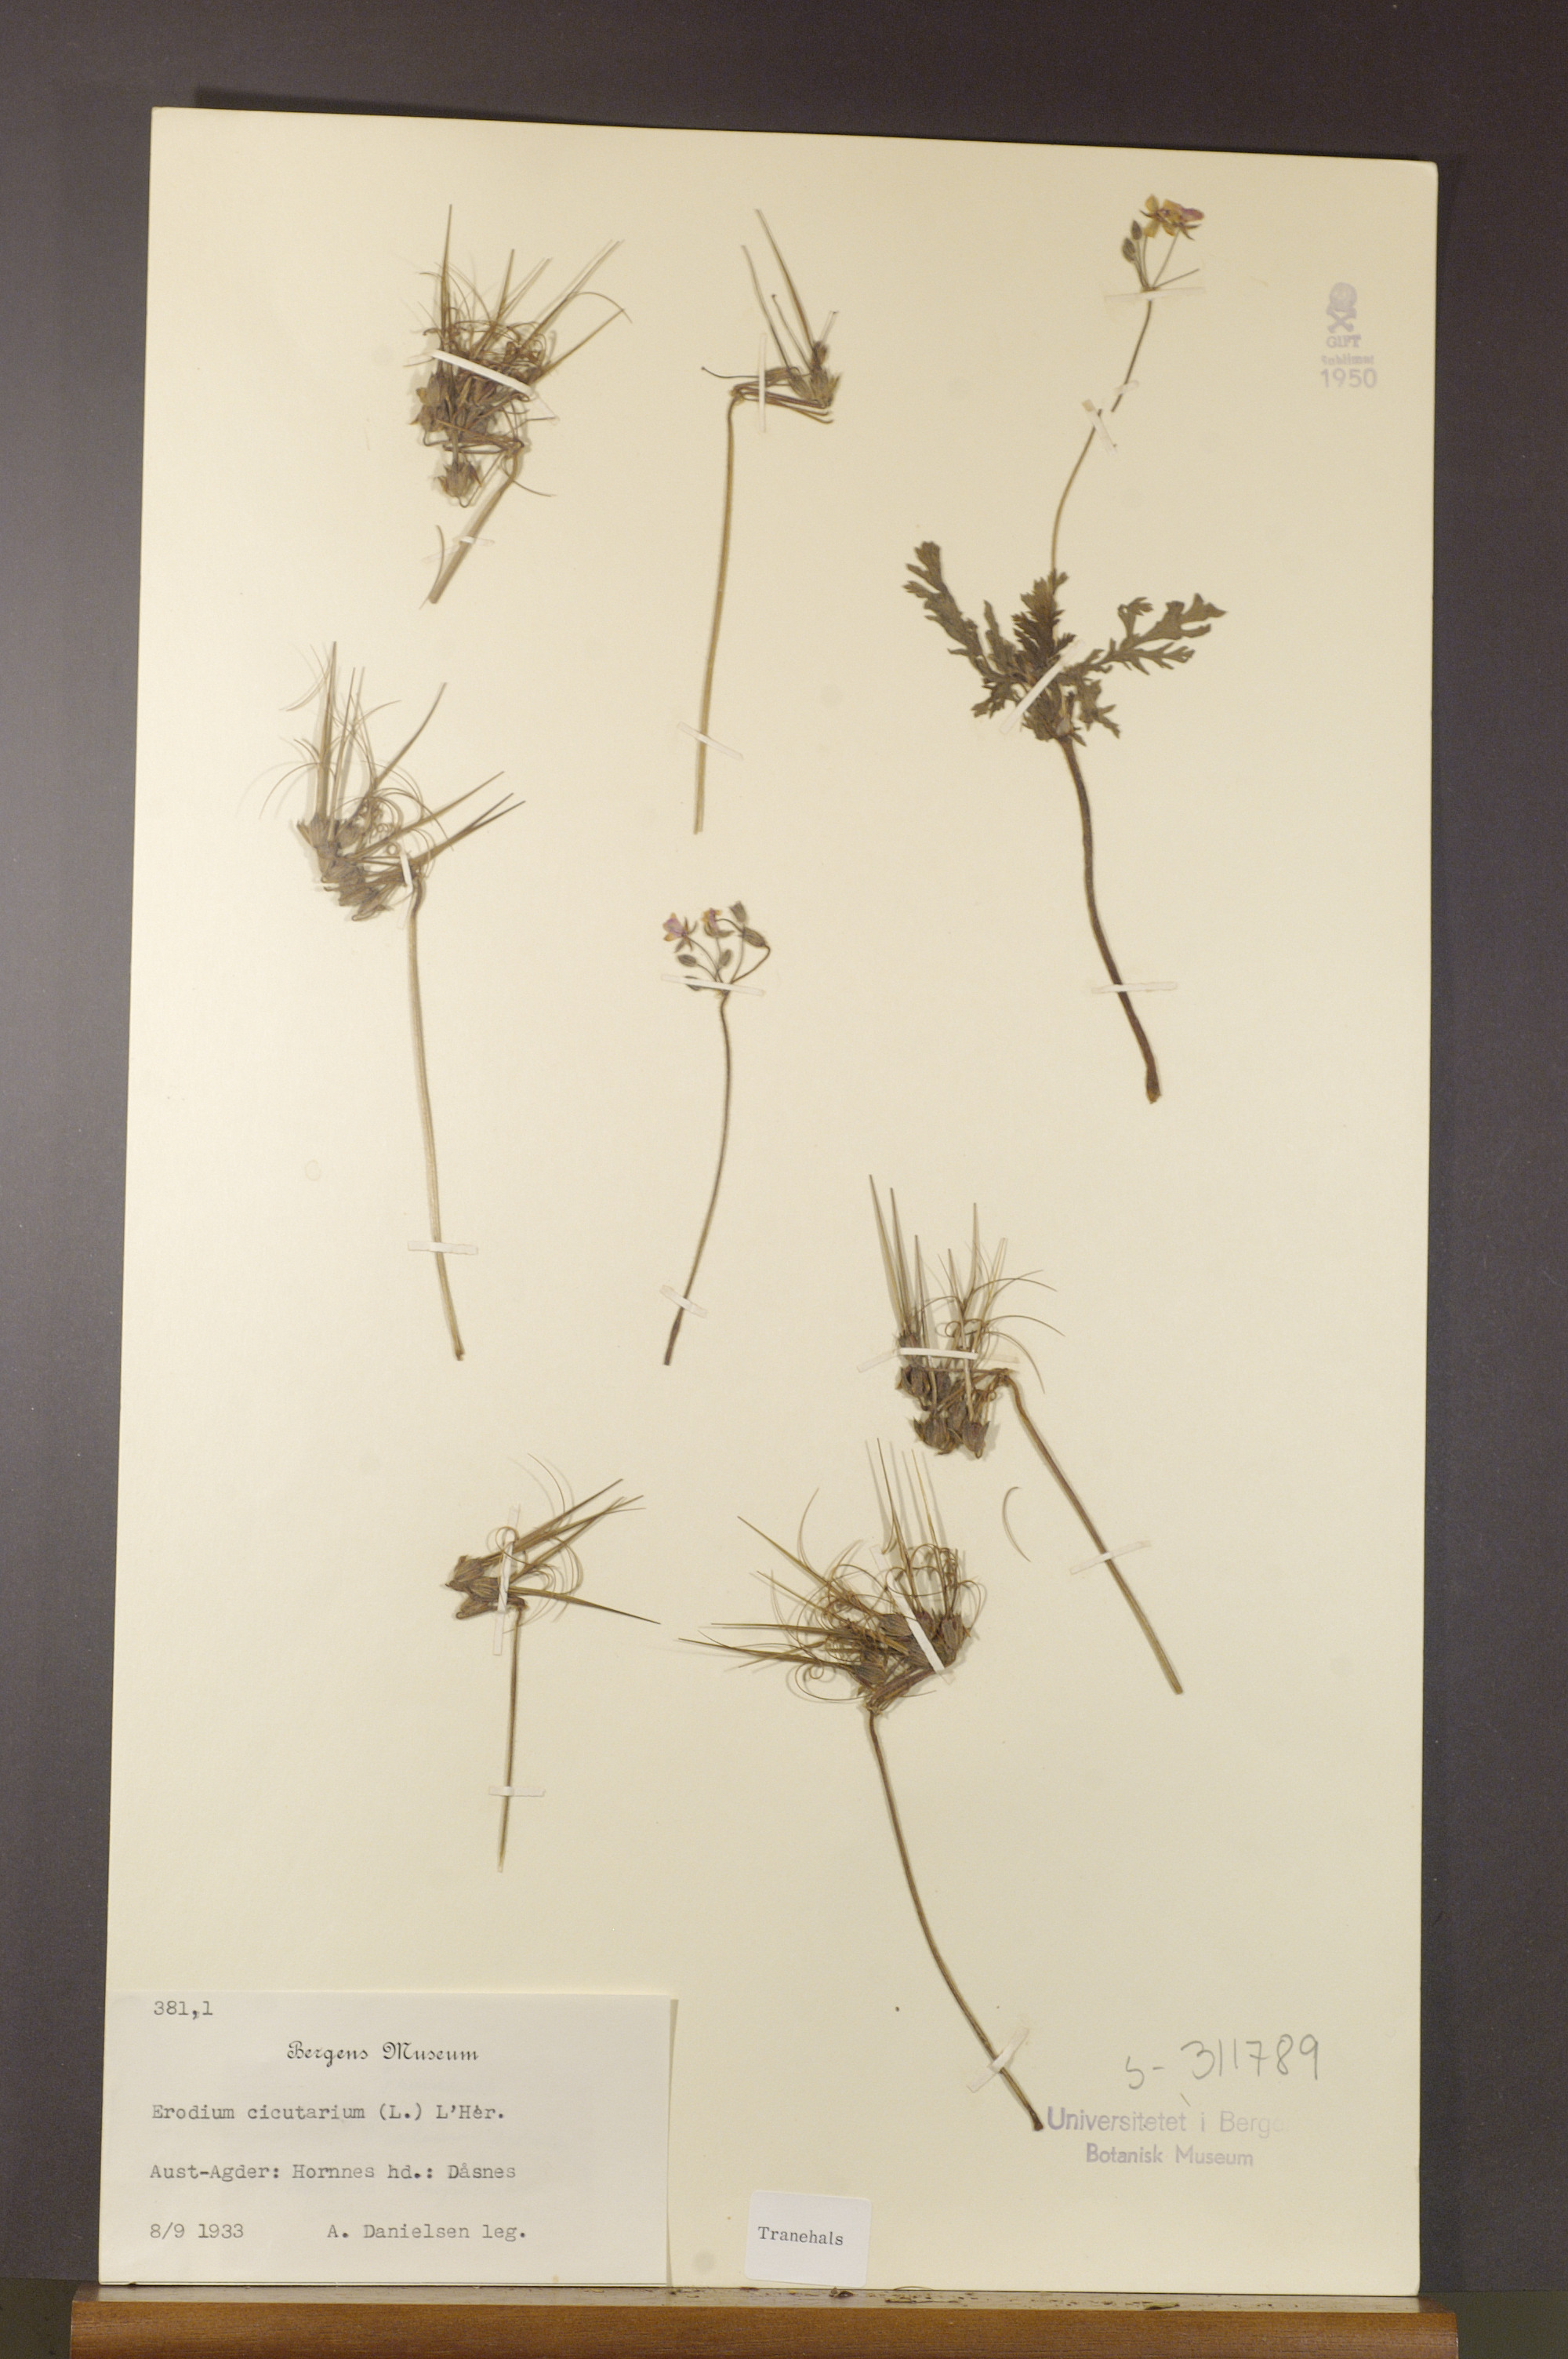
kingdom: Plantae
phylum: Tracheophyta
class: Magnoliopsida
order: Geraniales
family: Geraniaceae
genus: Erodium
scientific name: Erodium cicutarium
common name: Common stork's-bill
